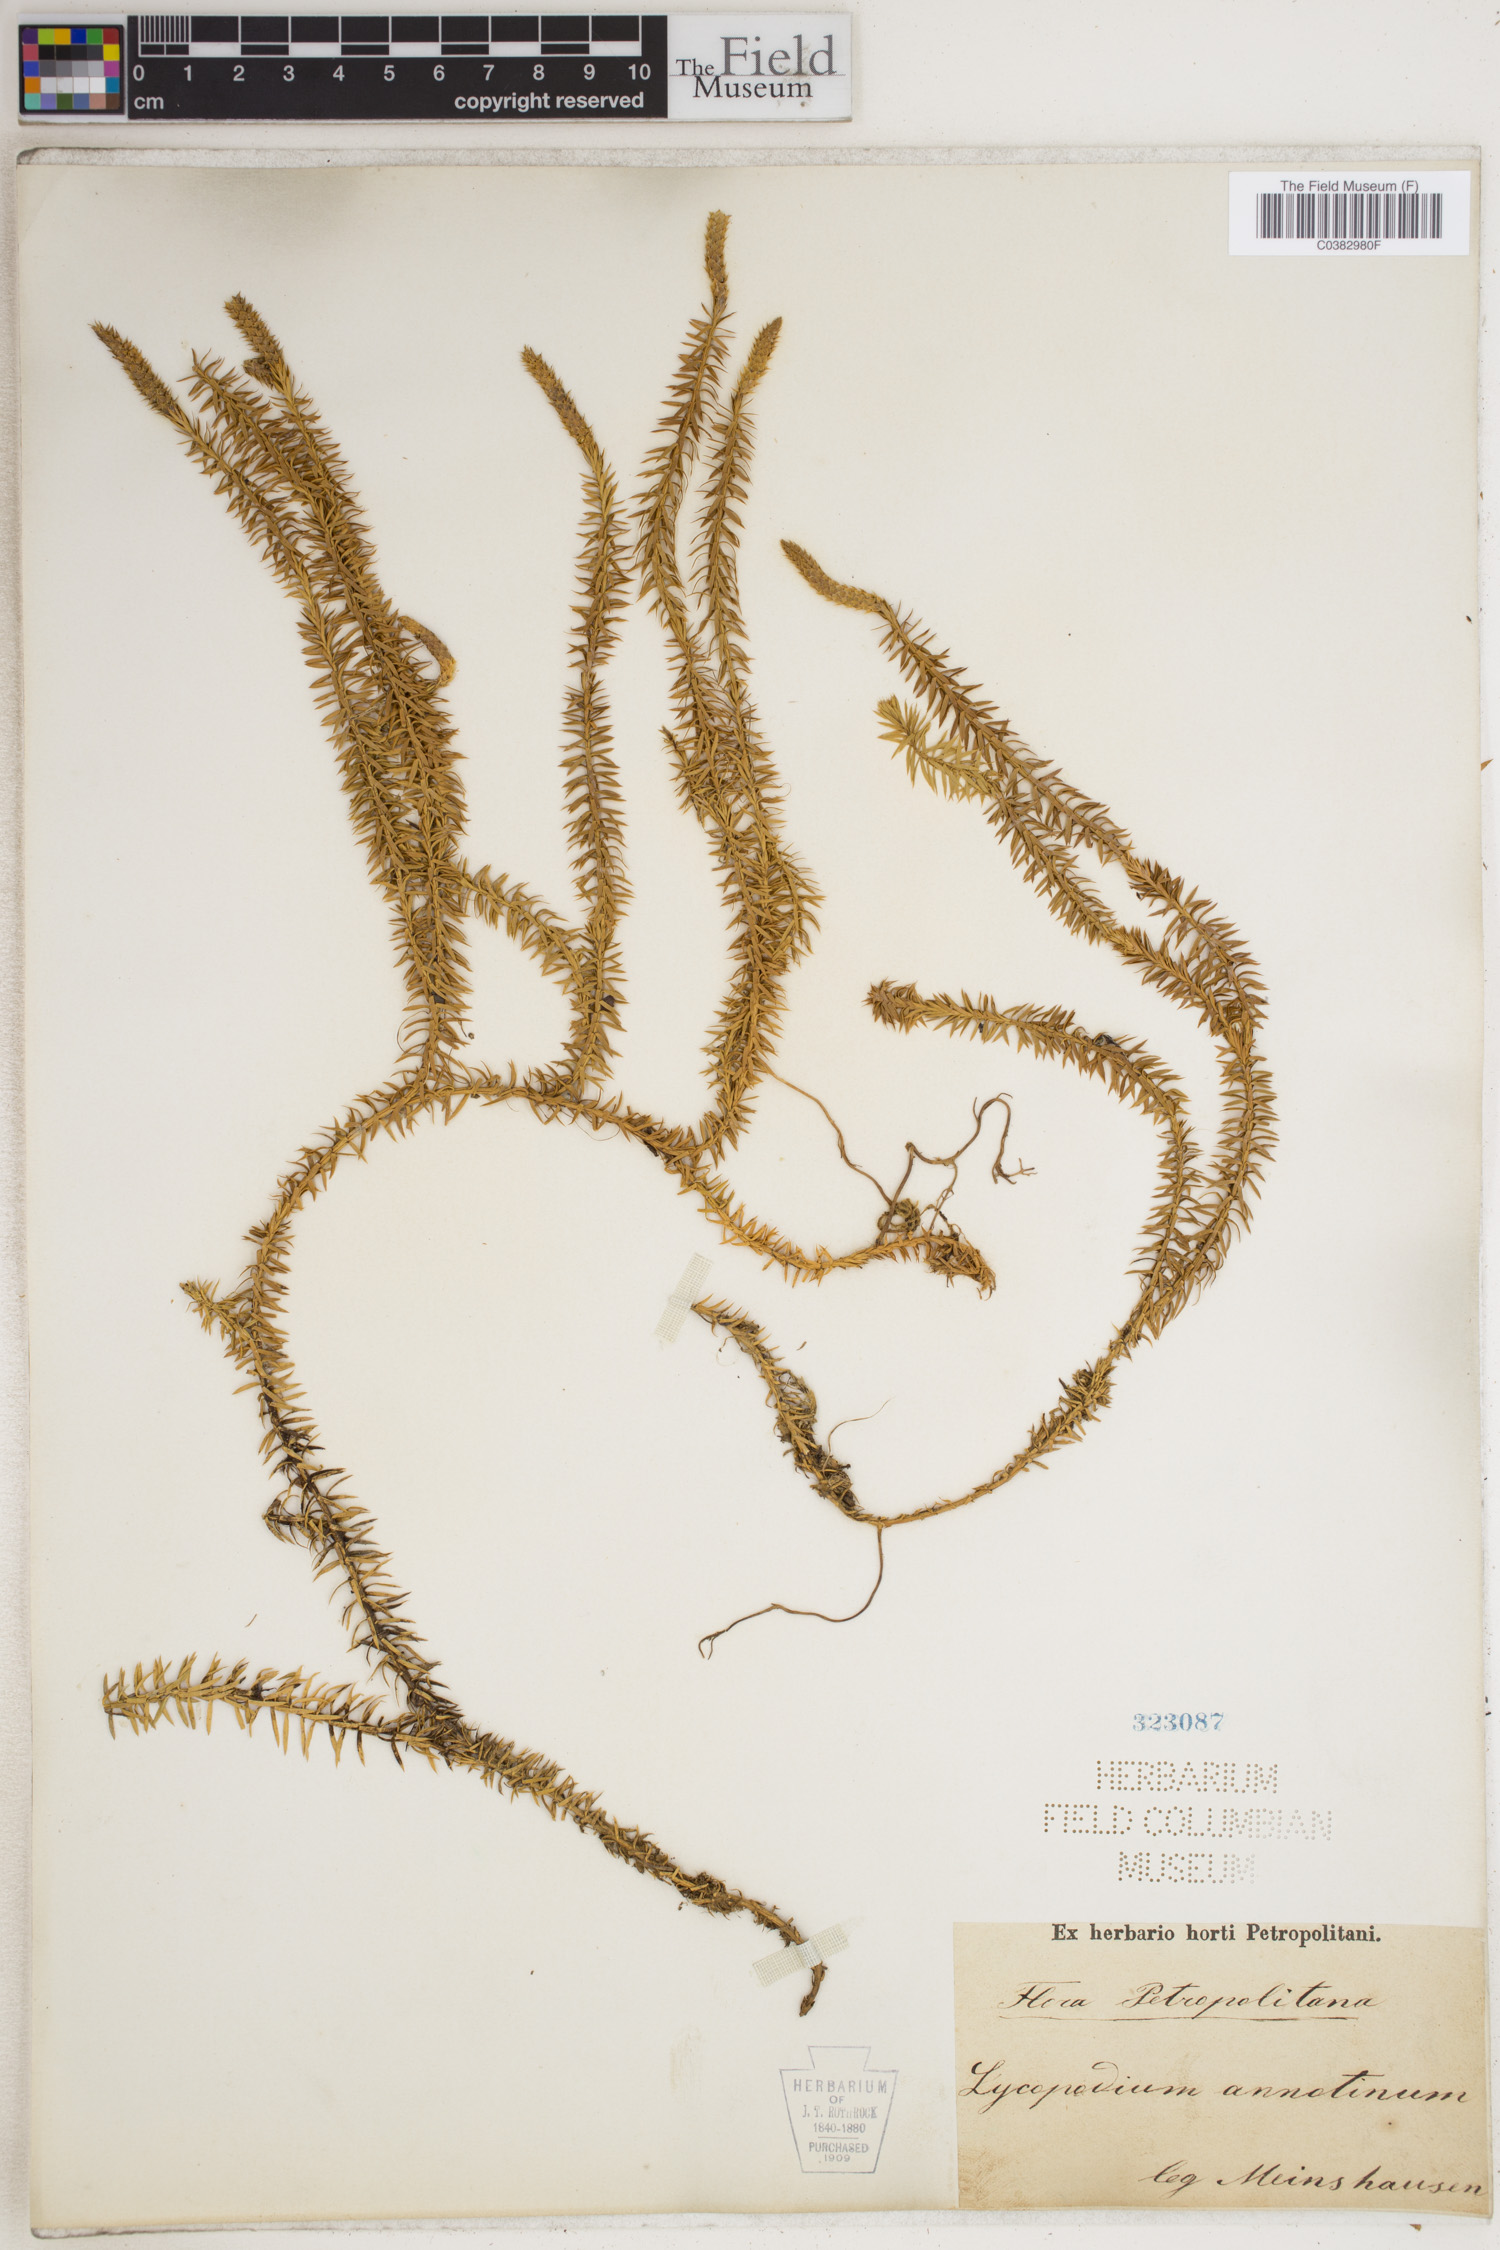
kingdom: Plantae
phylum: Tracheophyta
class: Lycopodiopsida
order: Lycopodiales
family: Lycopodiaceae
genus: Spinulum
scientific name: Spinulum annotinum
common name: Interrupted club-moss
